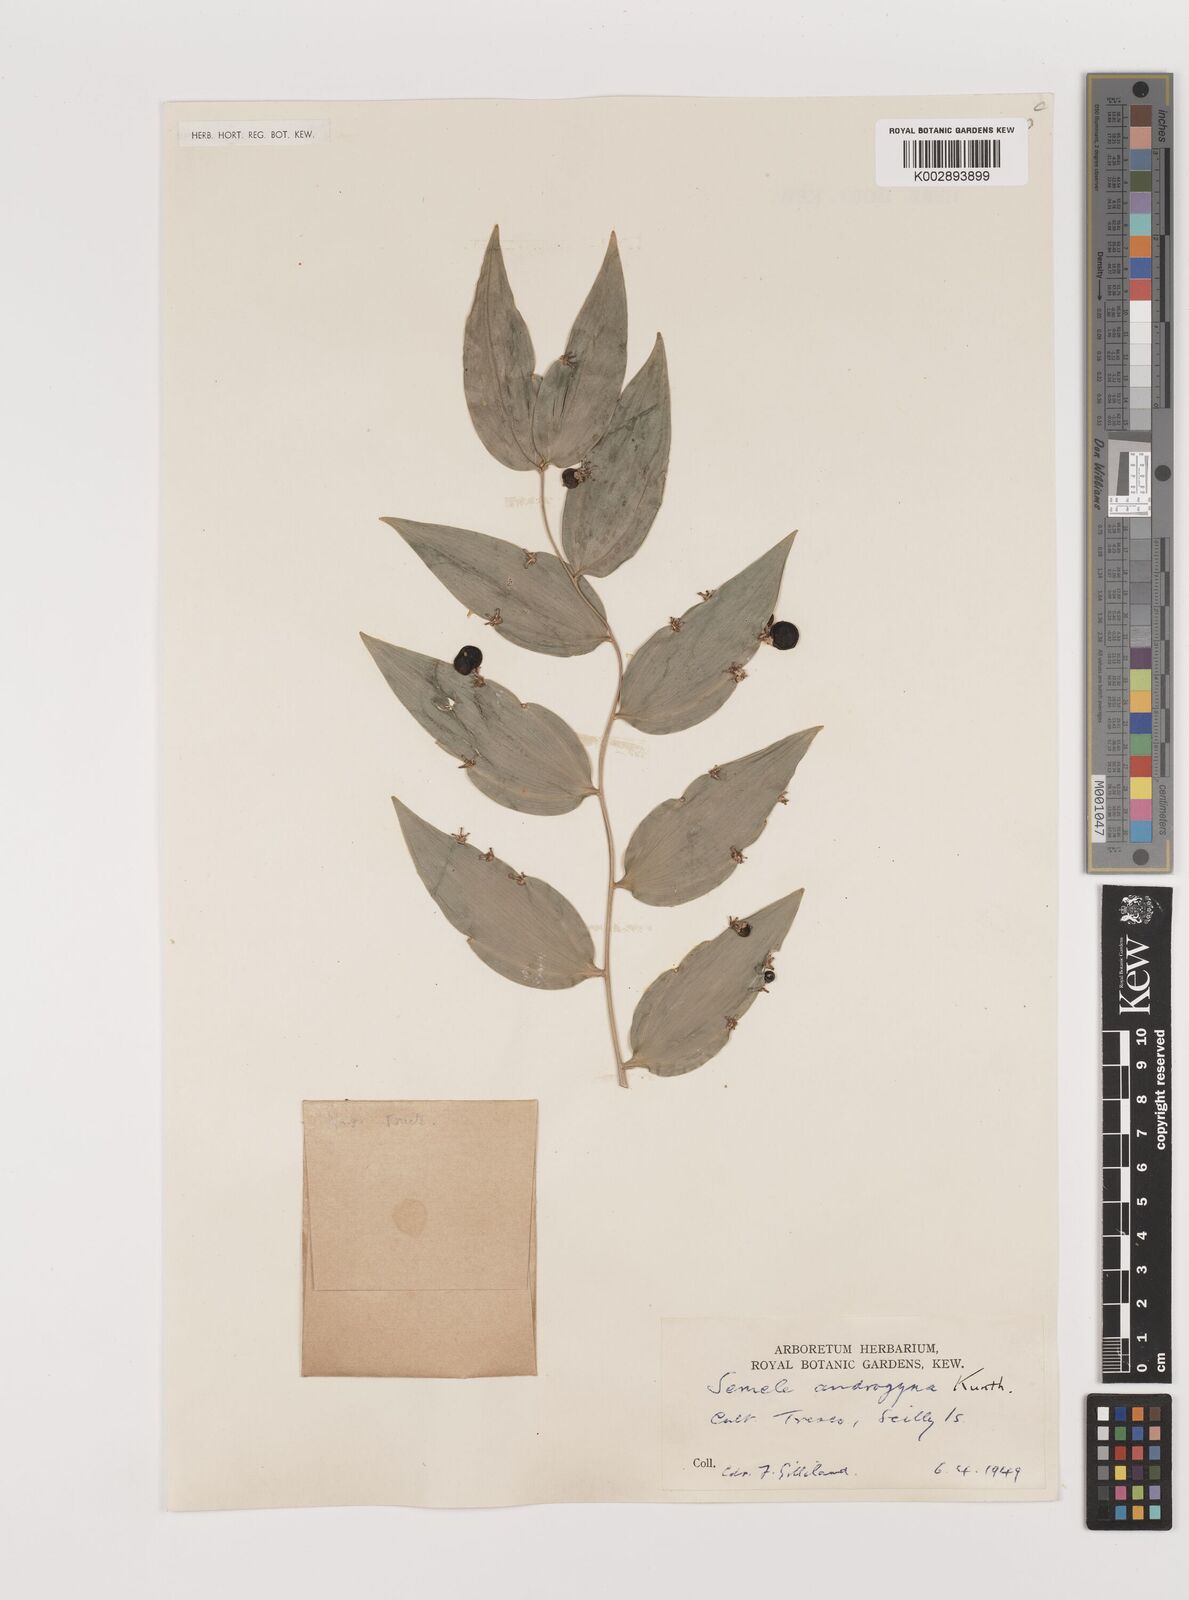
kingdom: Plantae
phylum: Tracheophyta
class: Liliopsida
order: Asparagales
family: Asparagaceae
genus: Semele
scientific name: Semele androgyna
